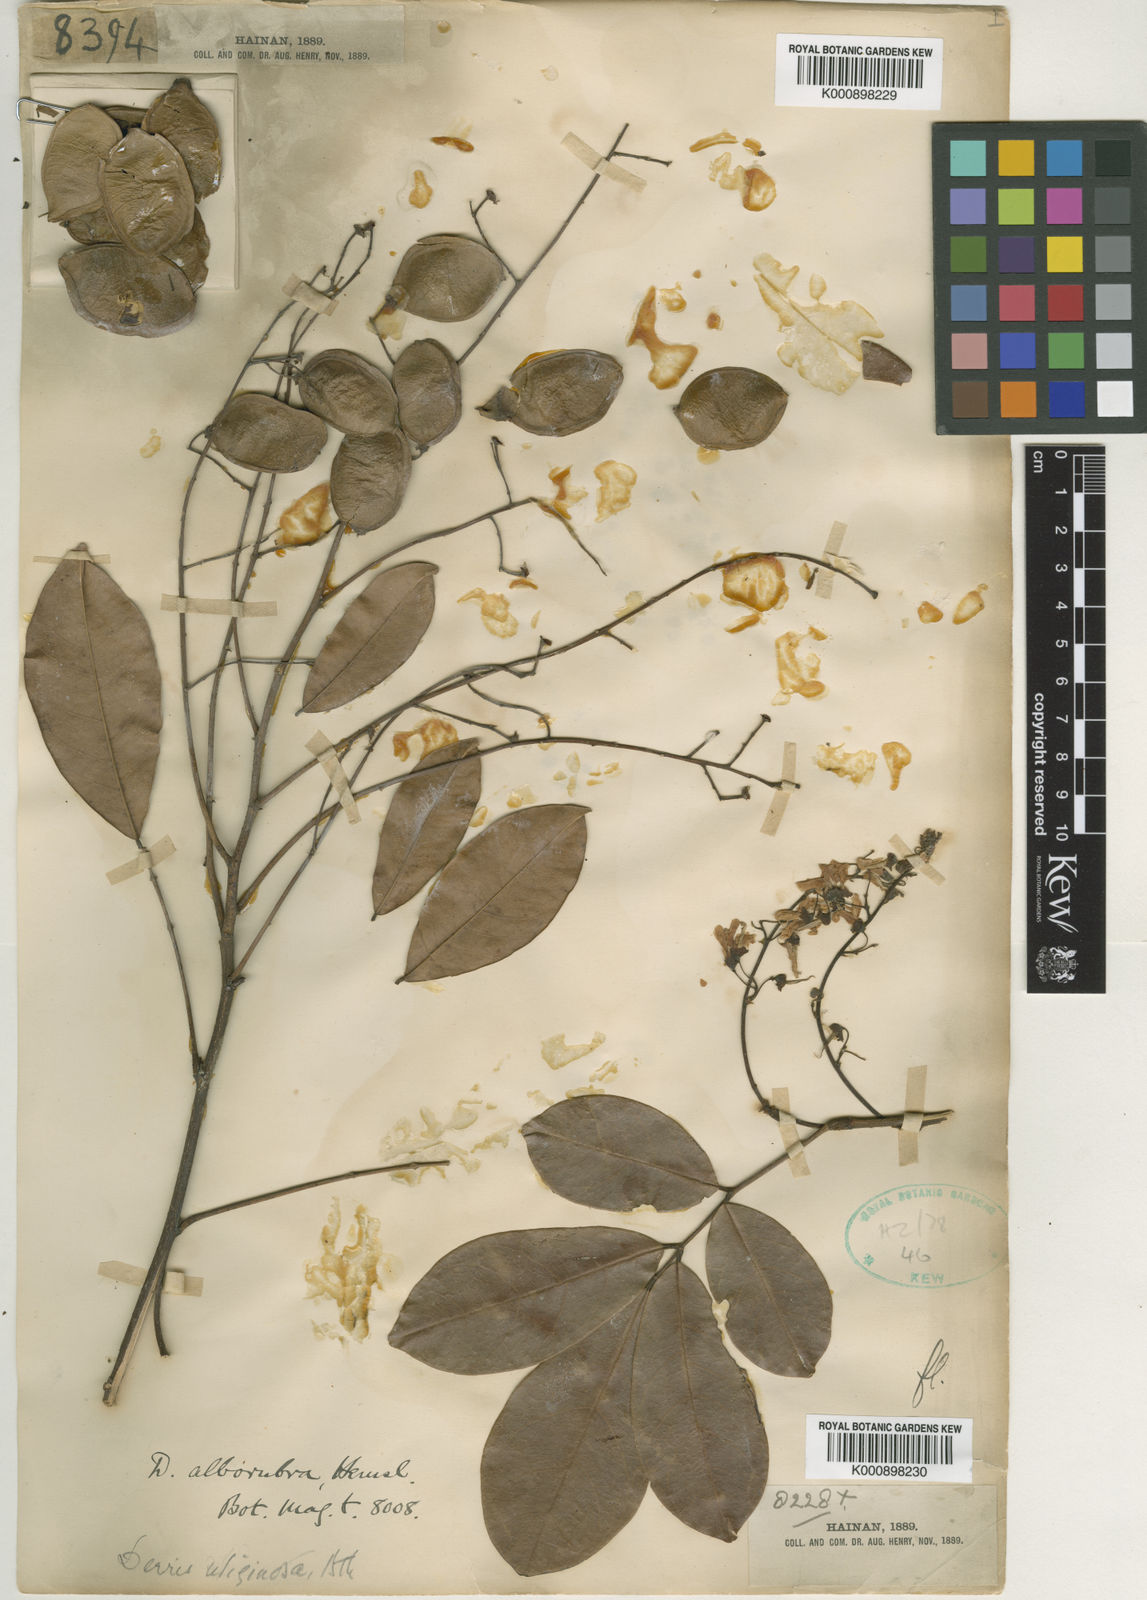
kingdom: Plantae
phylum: Tracheophyta
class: Magnoliopsida
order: Fabales
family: Fabaceae
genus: Derris
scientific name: Derris alborubra
